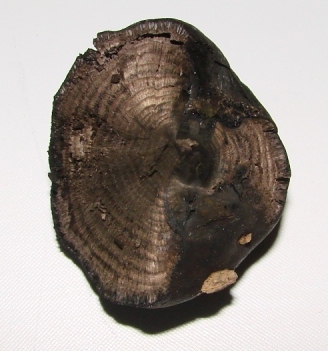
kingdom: Fungi
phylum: Ascomycota
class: Sordariomycetes
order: Xylariales
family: Hypoxylaceae
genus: Daldinia
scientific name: Daldinia concentrica
